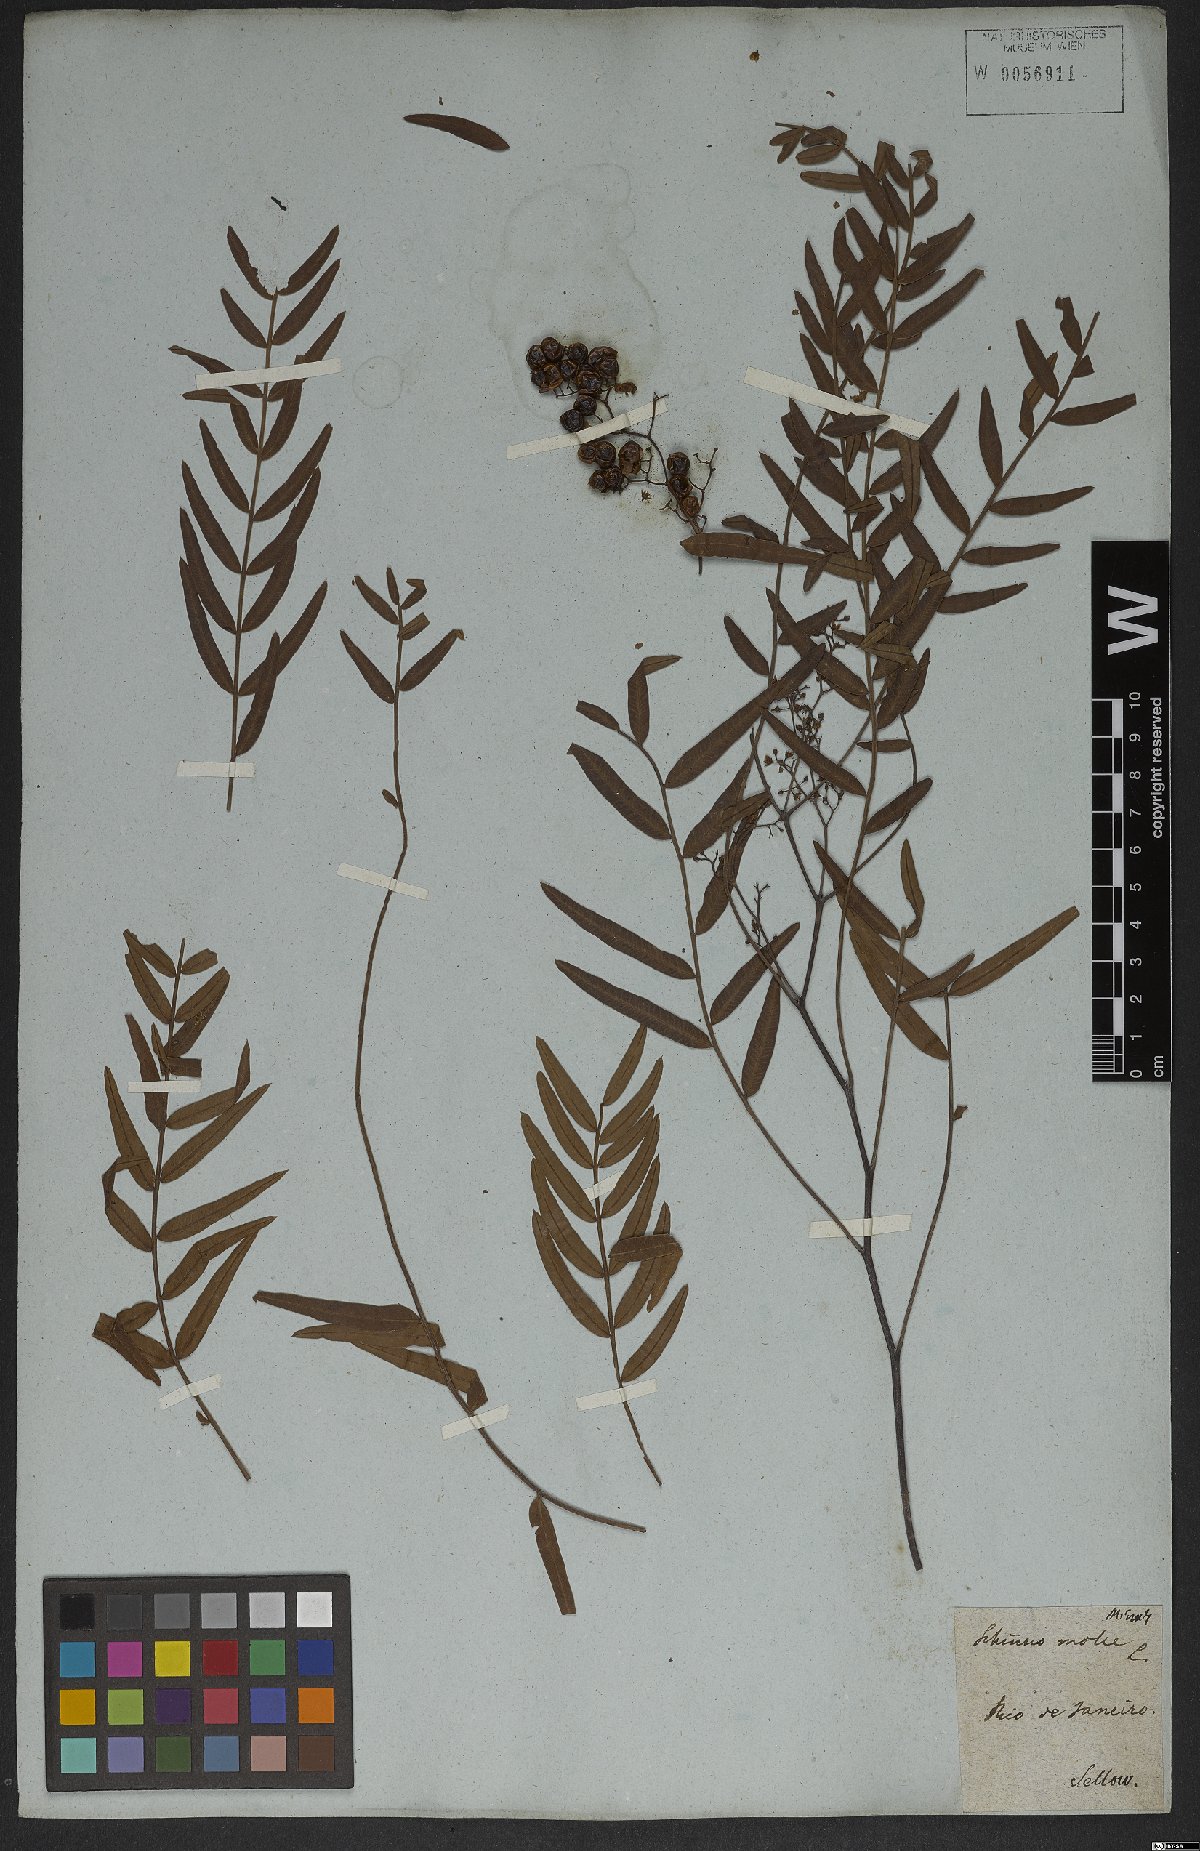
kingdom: Plantae
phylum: Tracheophyta
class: Magnoliopsida
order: Sapindales
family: Anacardiaceae
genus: Schinus
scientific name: Schinus molle
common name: Peruvian peppertree
